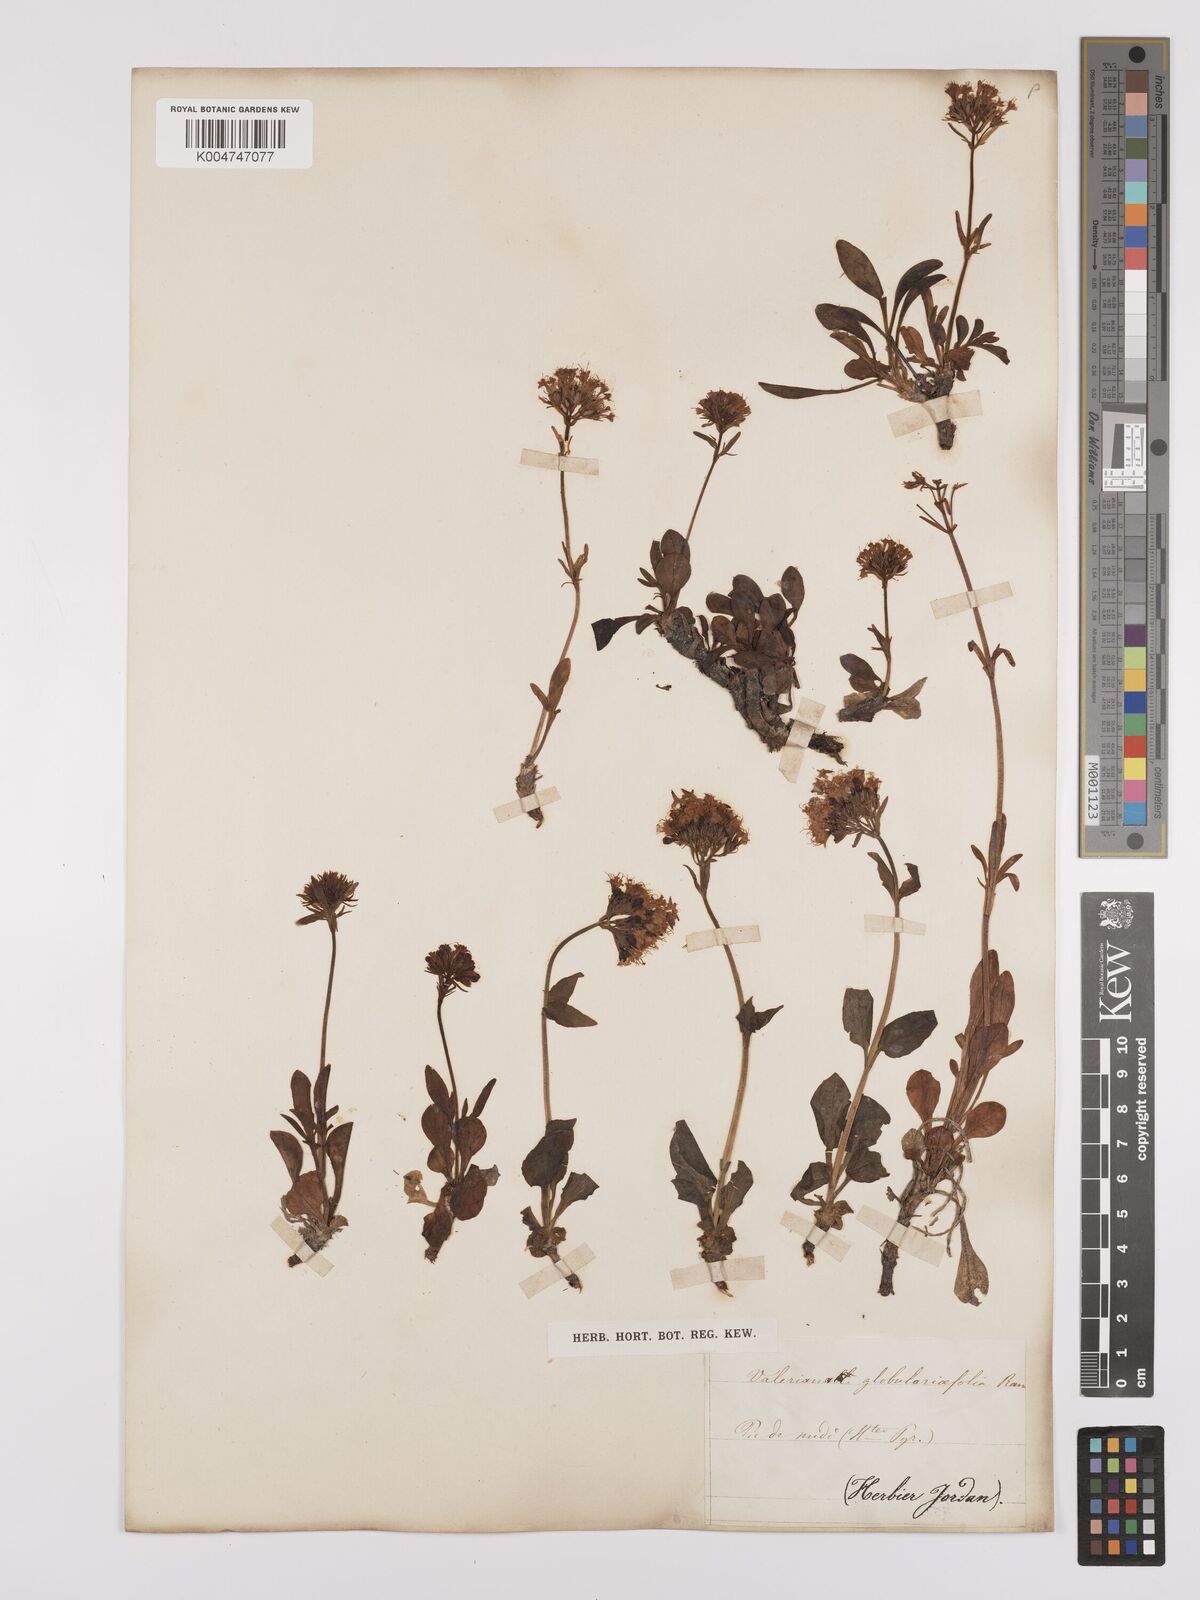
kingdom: Plantae
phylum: Tracheophyta
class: Magnoliopsida
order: Dipsacales
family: Caprifoliaceae
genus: Valeriana
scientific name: Valeriana apula
